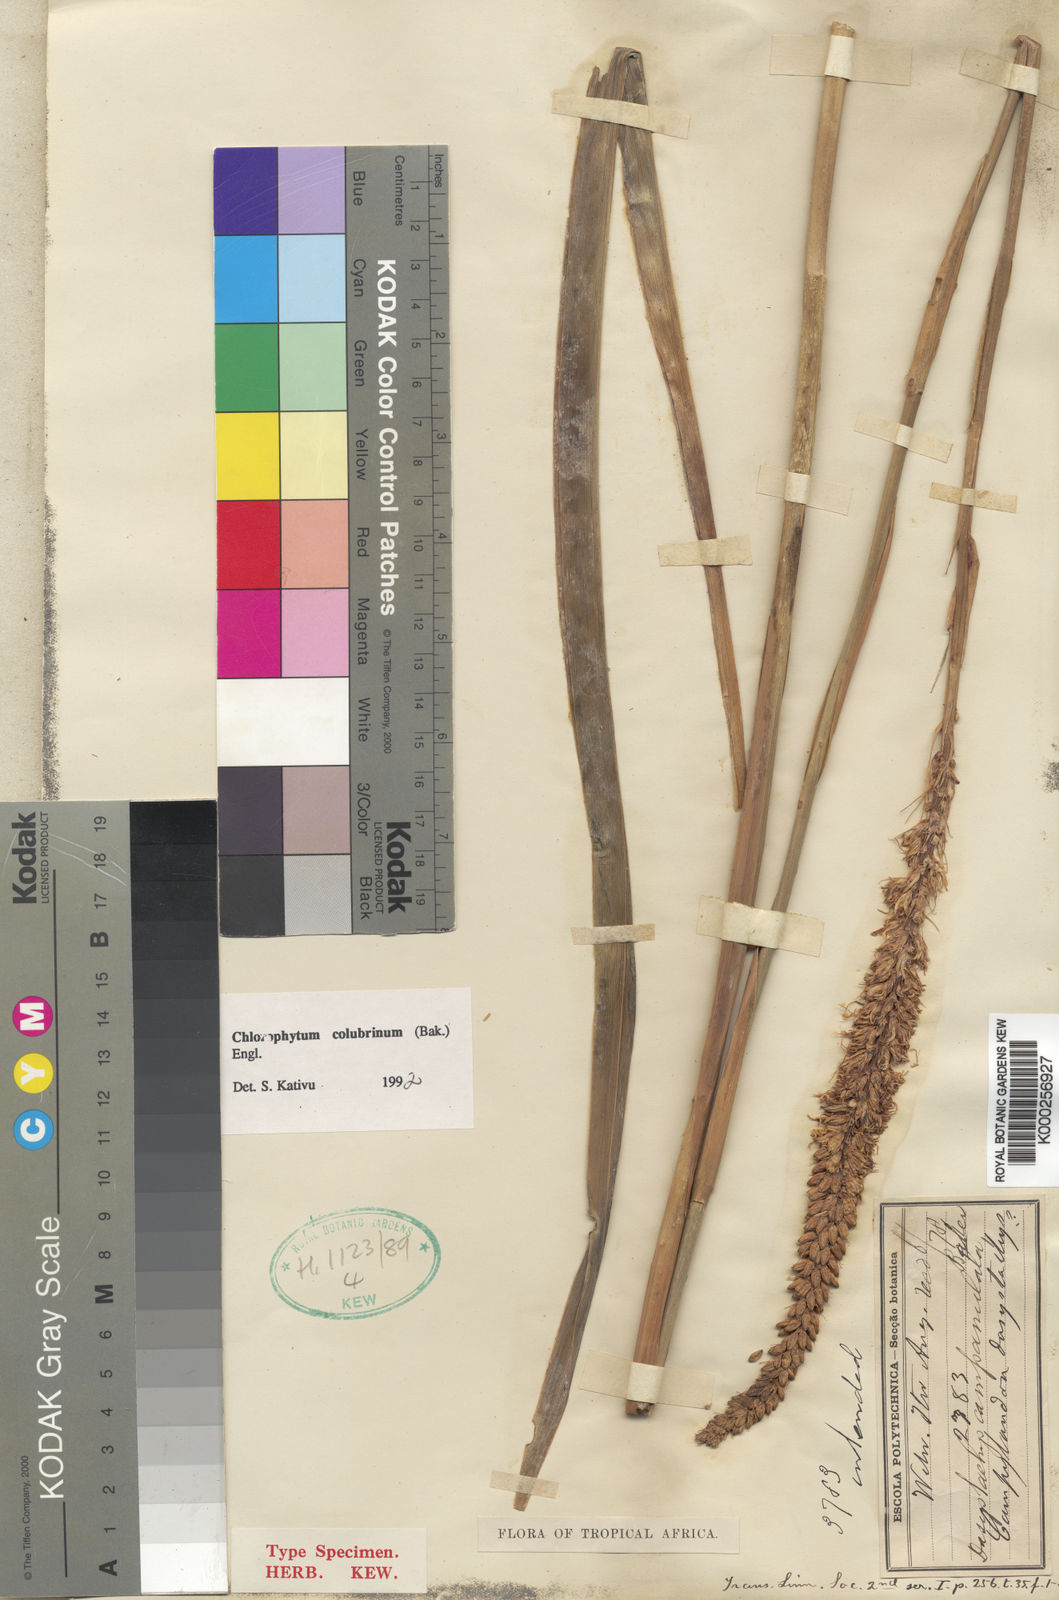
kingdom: Plantae
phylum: Tracheophyta
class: Liliopsida
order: Asparagales
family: Asparagaceae
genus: Chlorophytum
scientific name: Chlorophytum colubrinum
